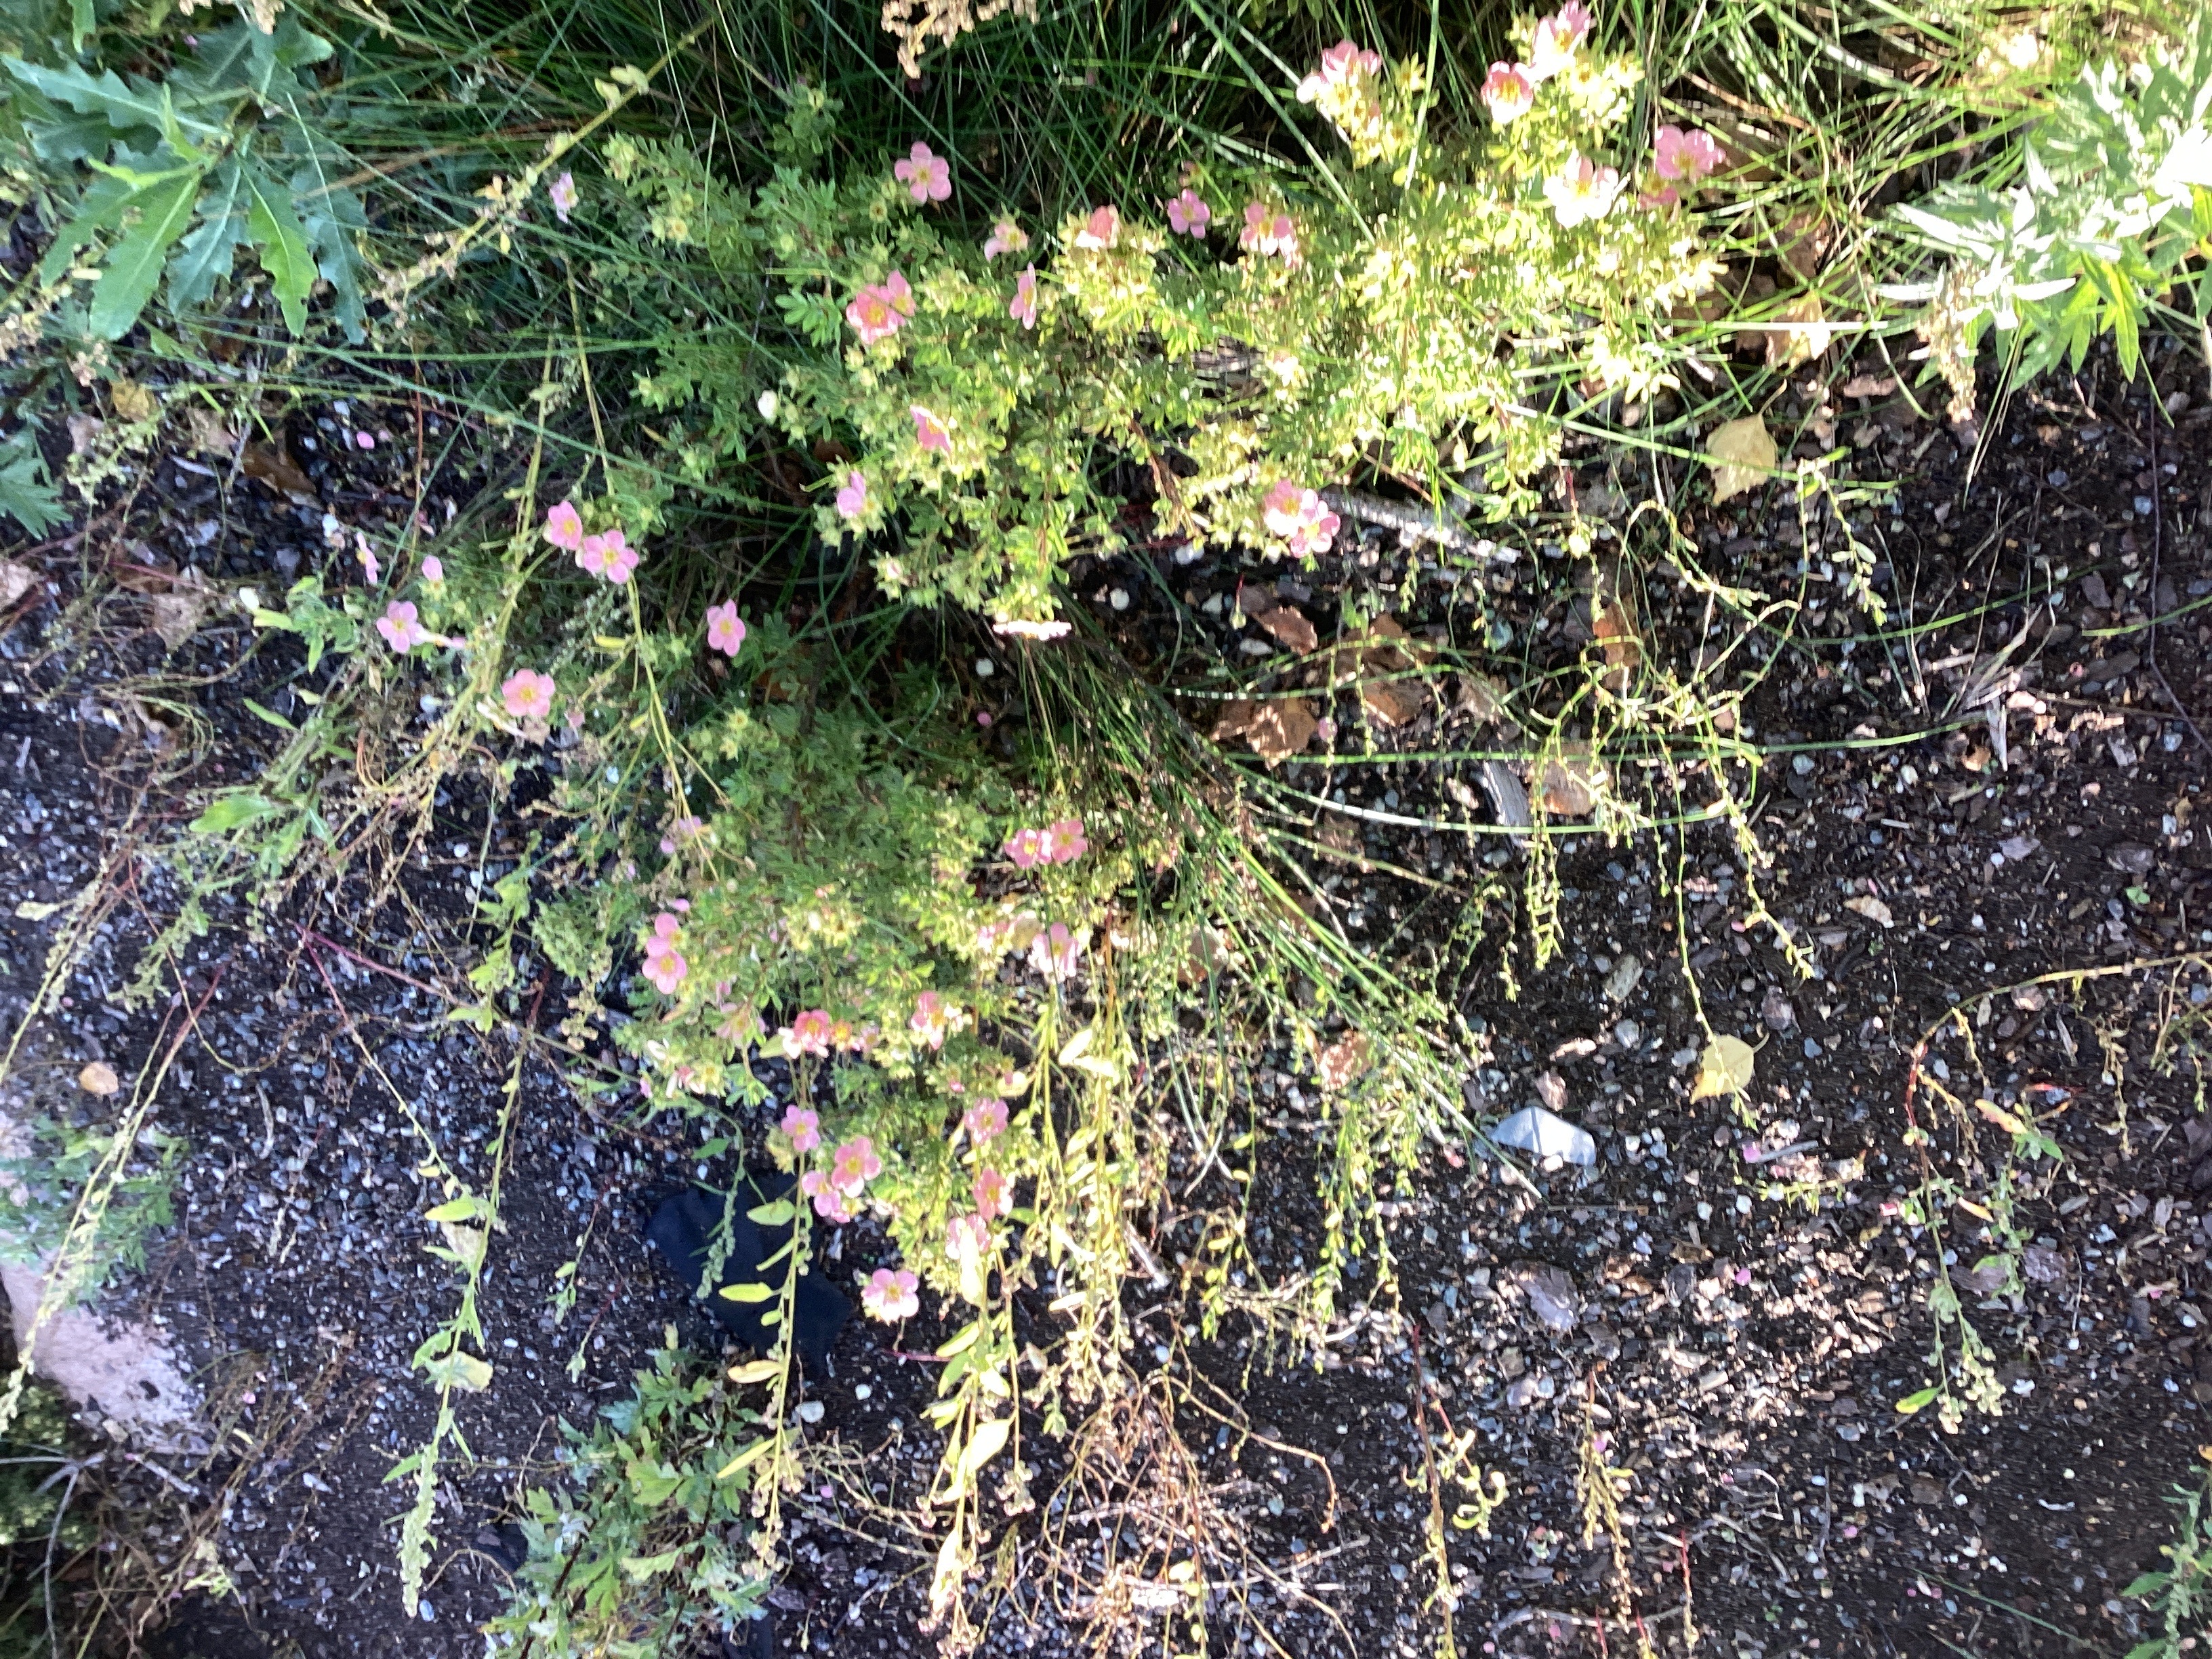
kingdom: Plantae
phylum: Tracheophyta
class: Magnoliopsida
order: Rosales
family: Rosaceae
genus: Dasiphora
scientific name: Dasiphora fruticosa
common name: buskmure
